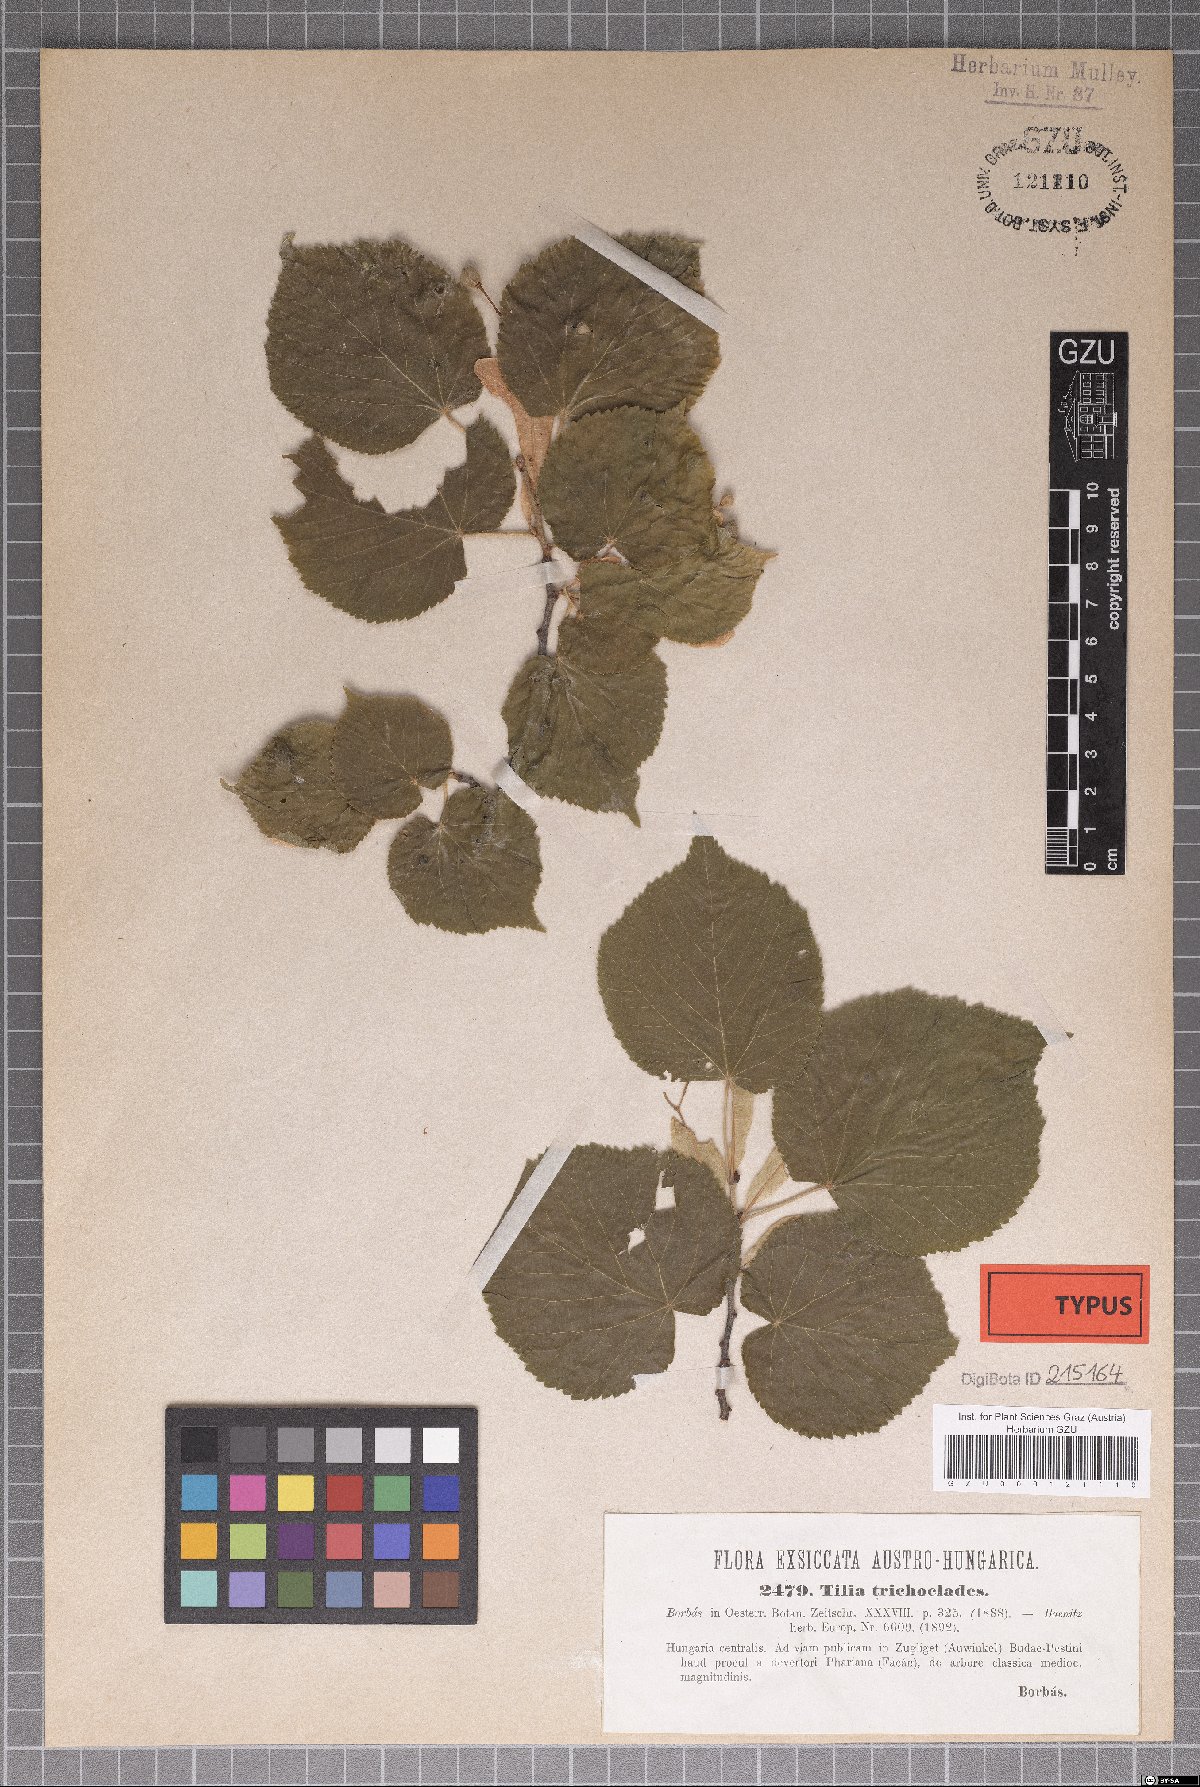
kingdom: Plantae
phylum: Tracheophyta
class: Magnoliopsida
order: Malvales
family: Malvaceae
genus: Tilia
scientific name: Tilia platyphyllos
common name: Large-leaved lime
